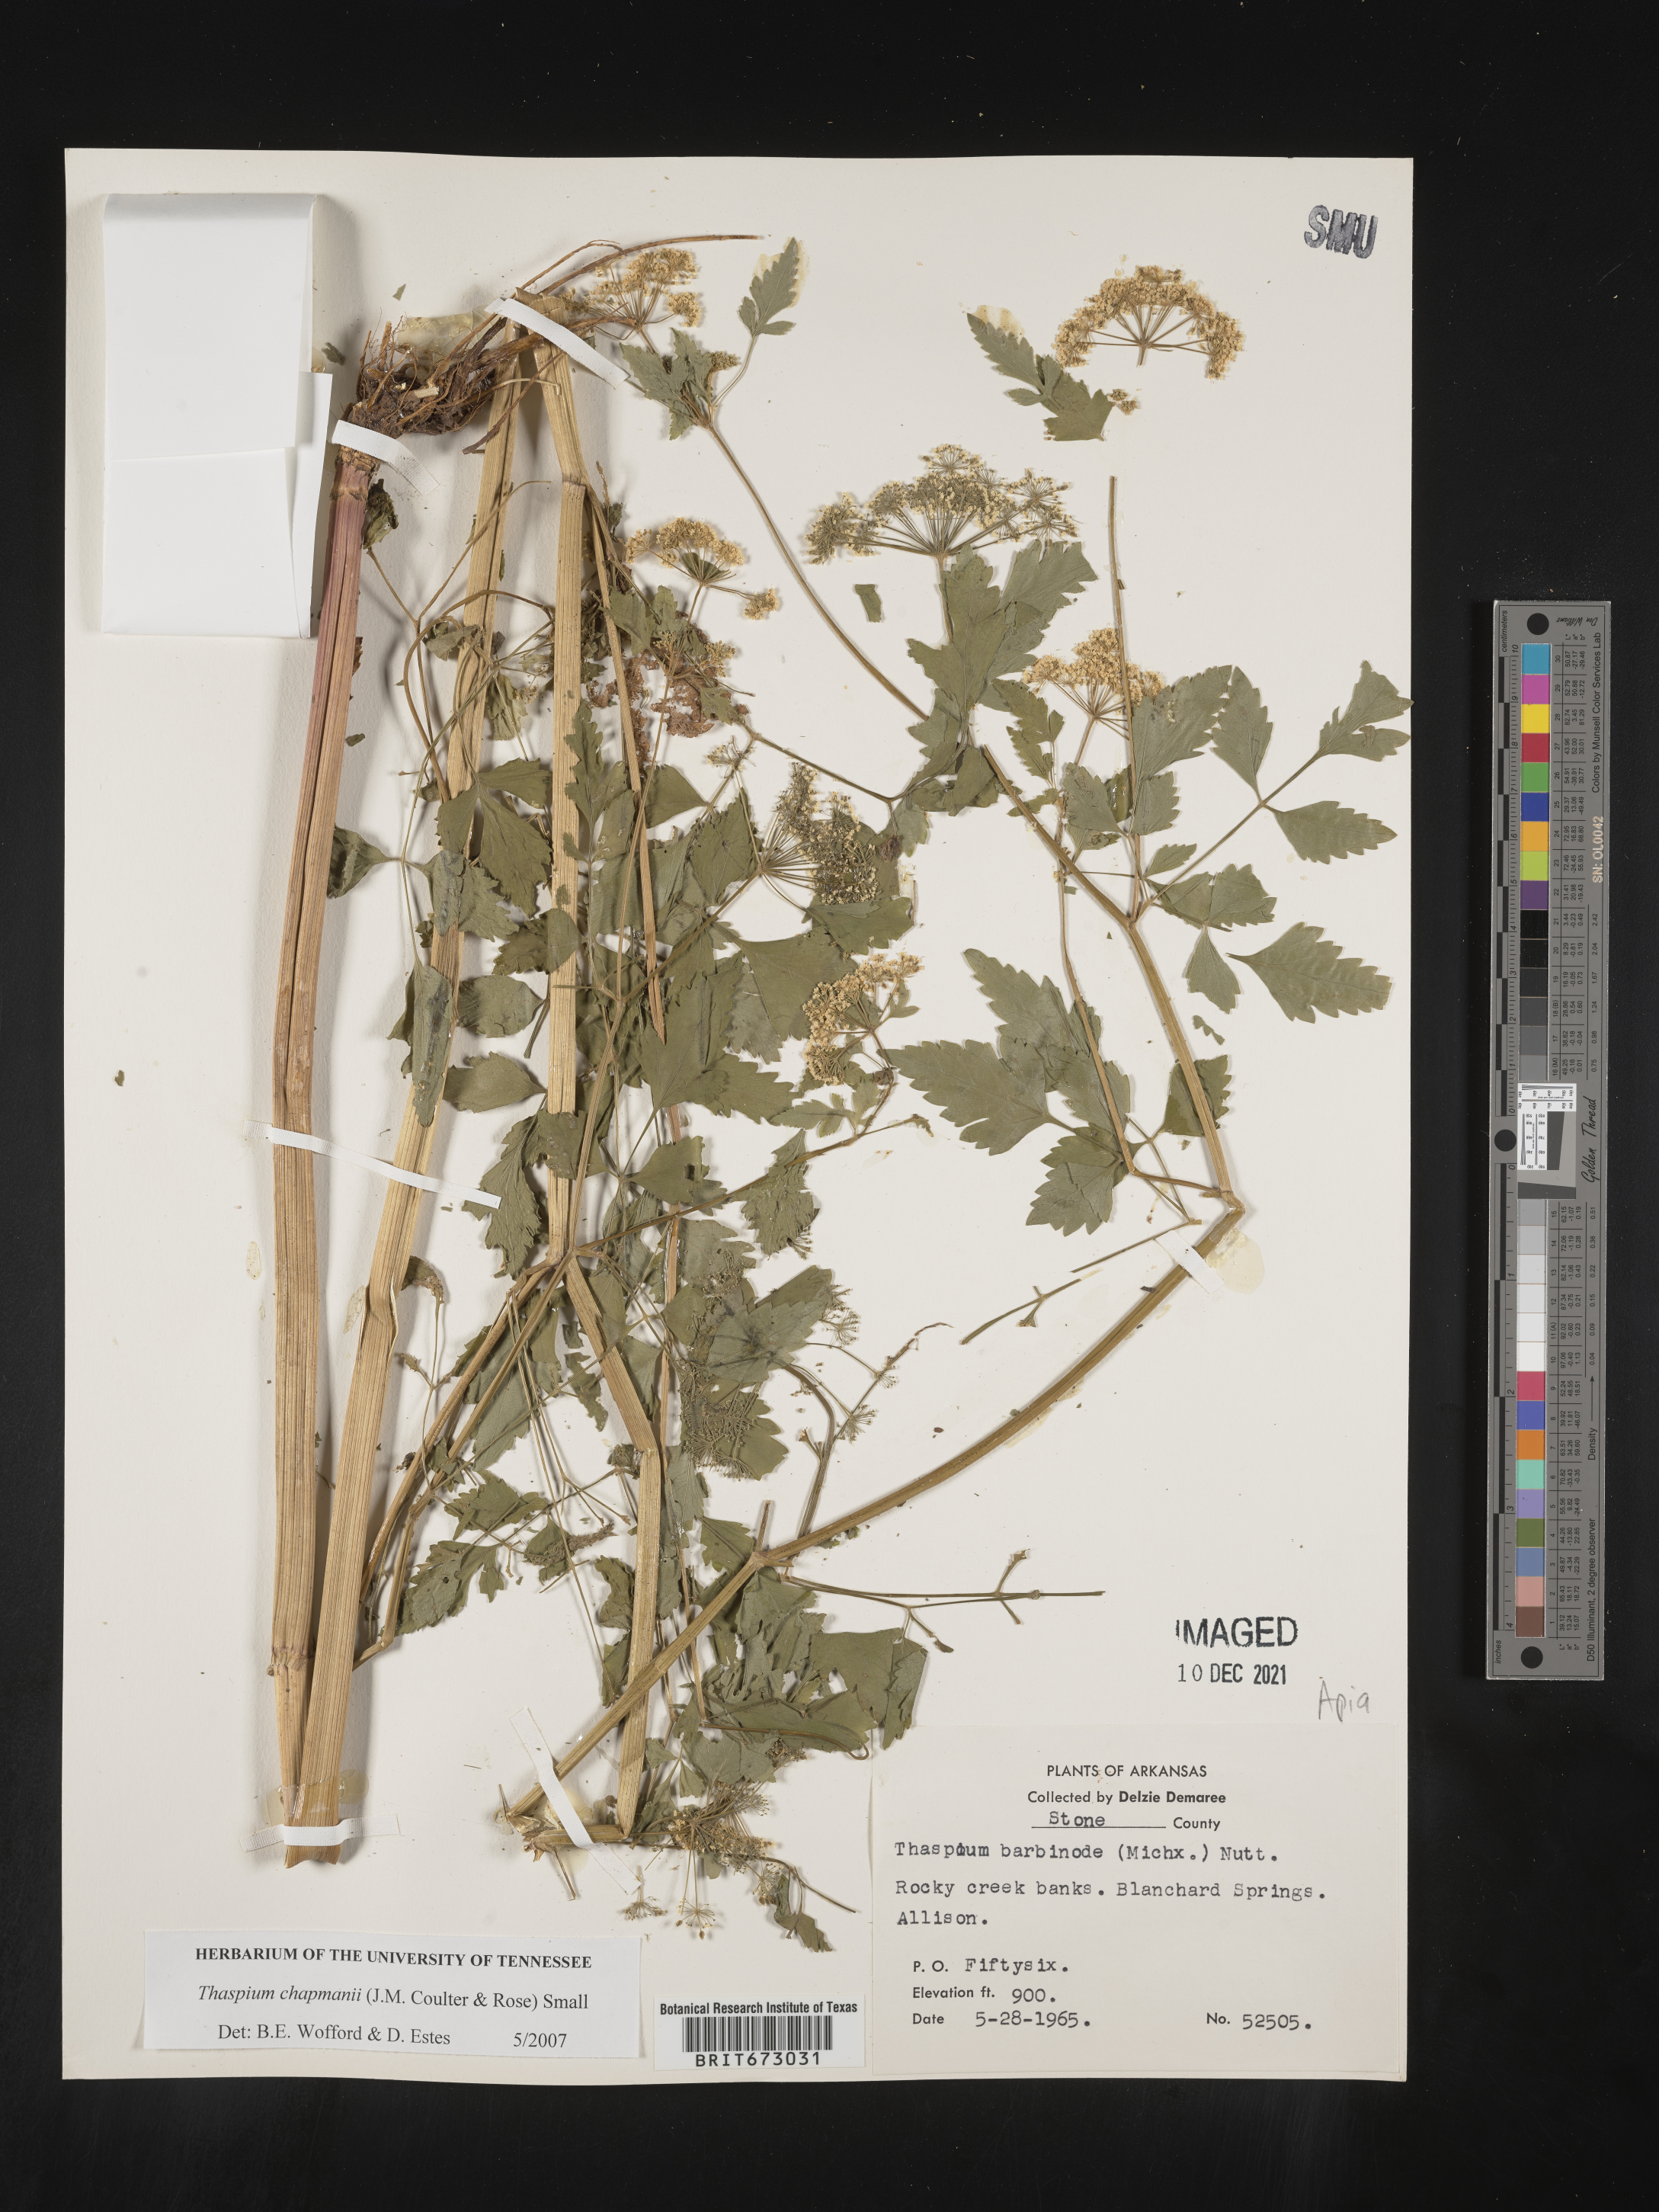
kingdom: Plantae
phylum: Tracheophyta
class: Magnoliopsida
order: Apiales
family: Apiaceae
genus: Thaspium
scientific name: Thaspium barbinode
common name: Bearded meadow-parsnip
